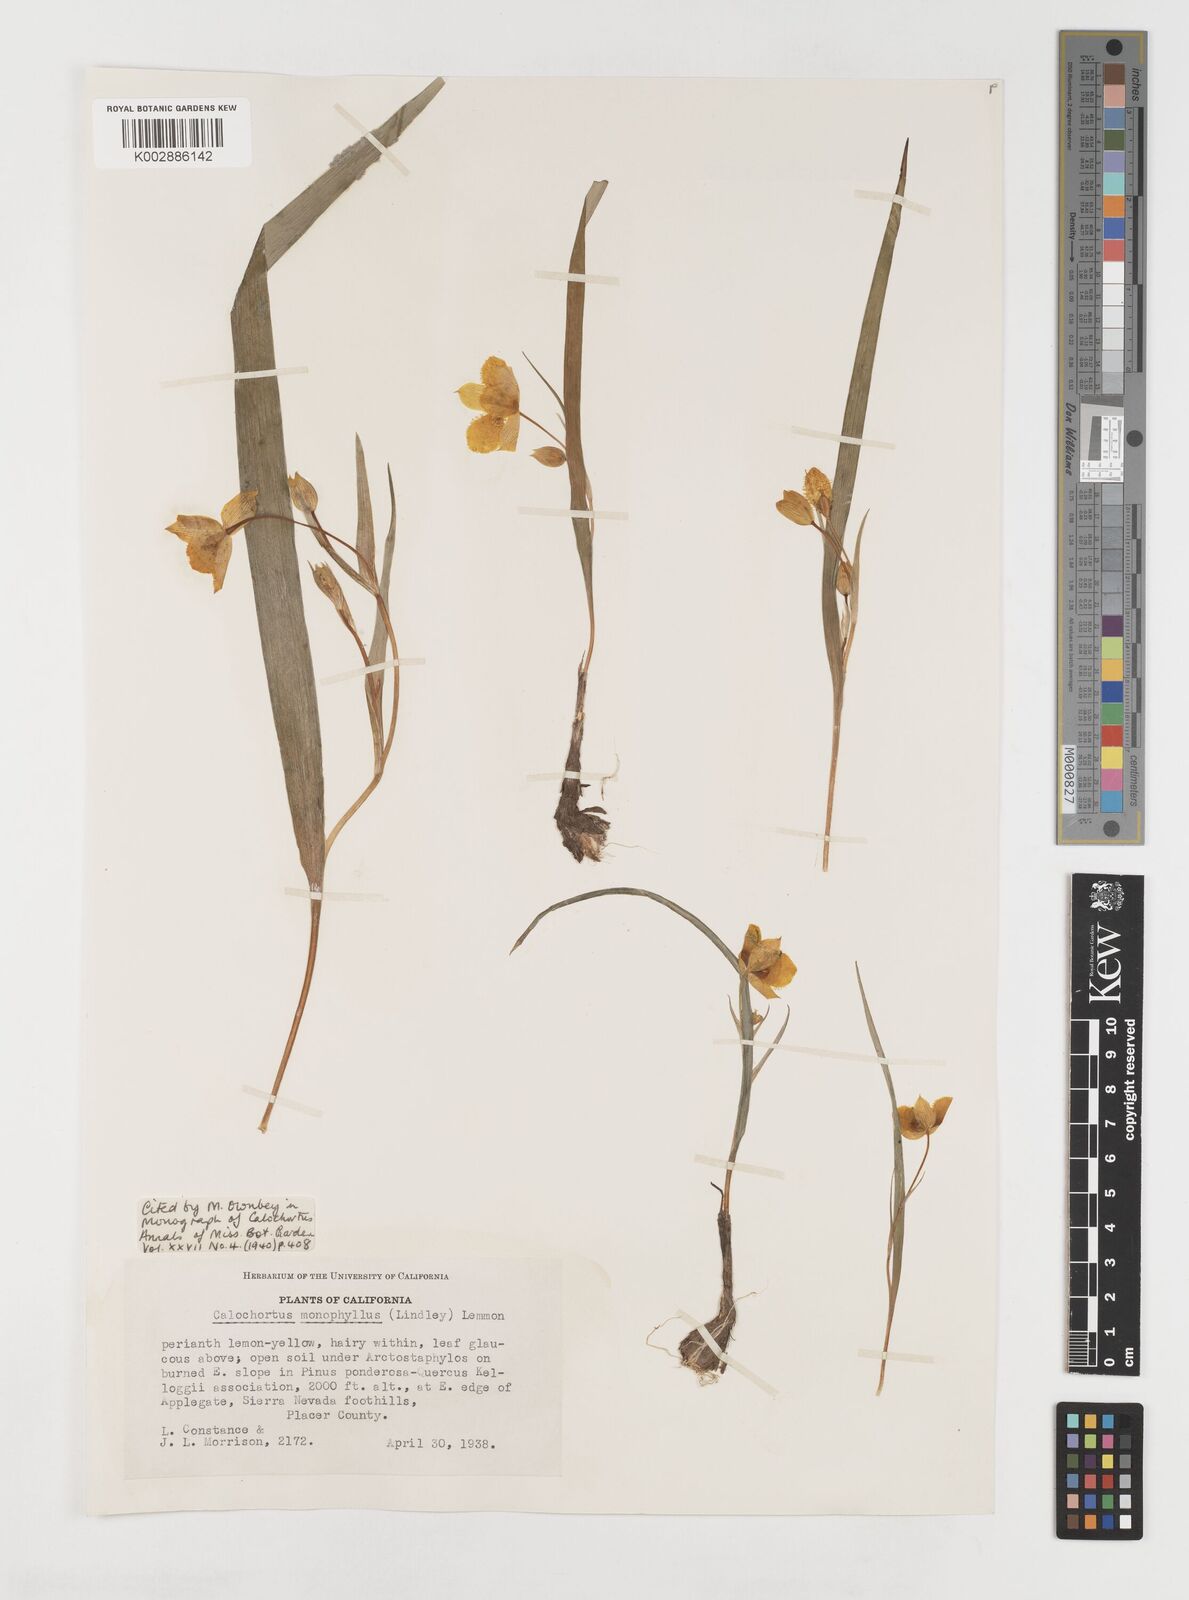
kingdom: Plantae
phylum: Tracheophyta
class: Liliopsida
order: Liliales
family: Liliaceae
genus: Calochortus
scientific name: Calochortus monophyllus
